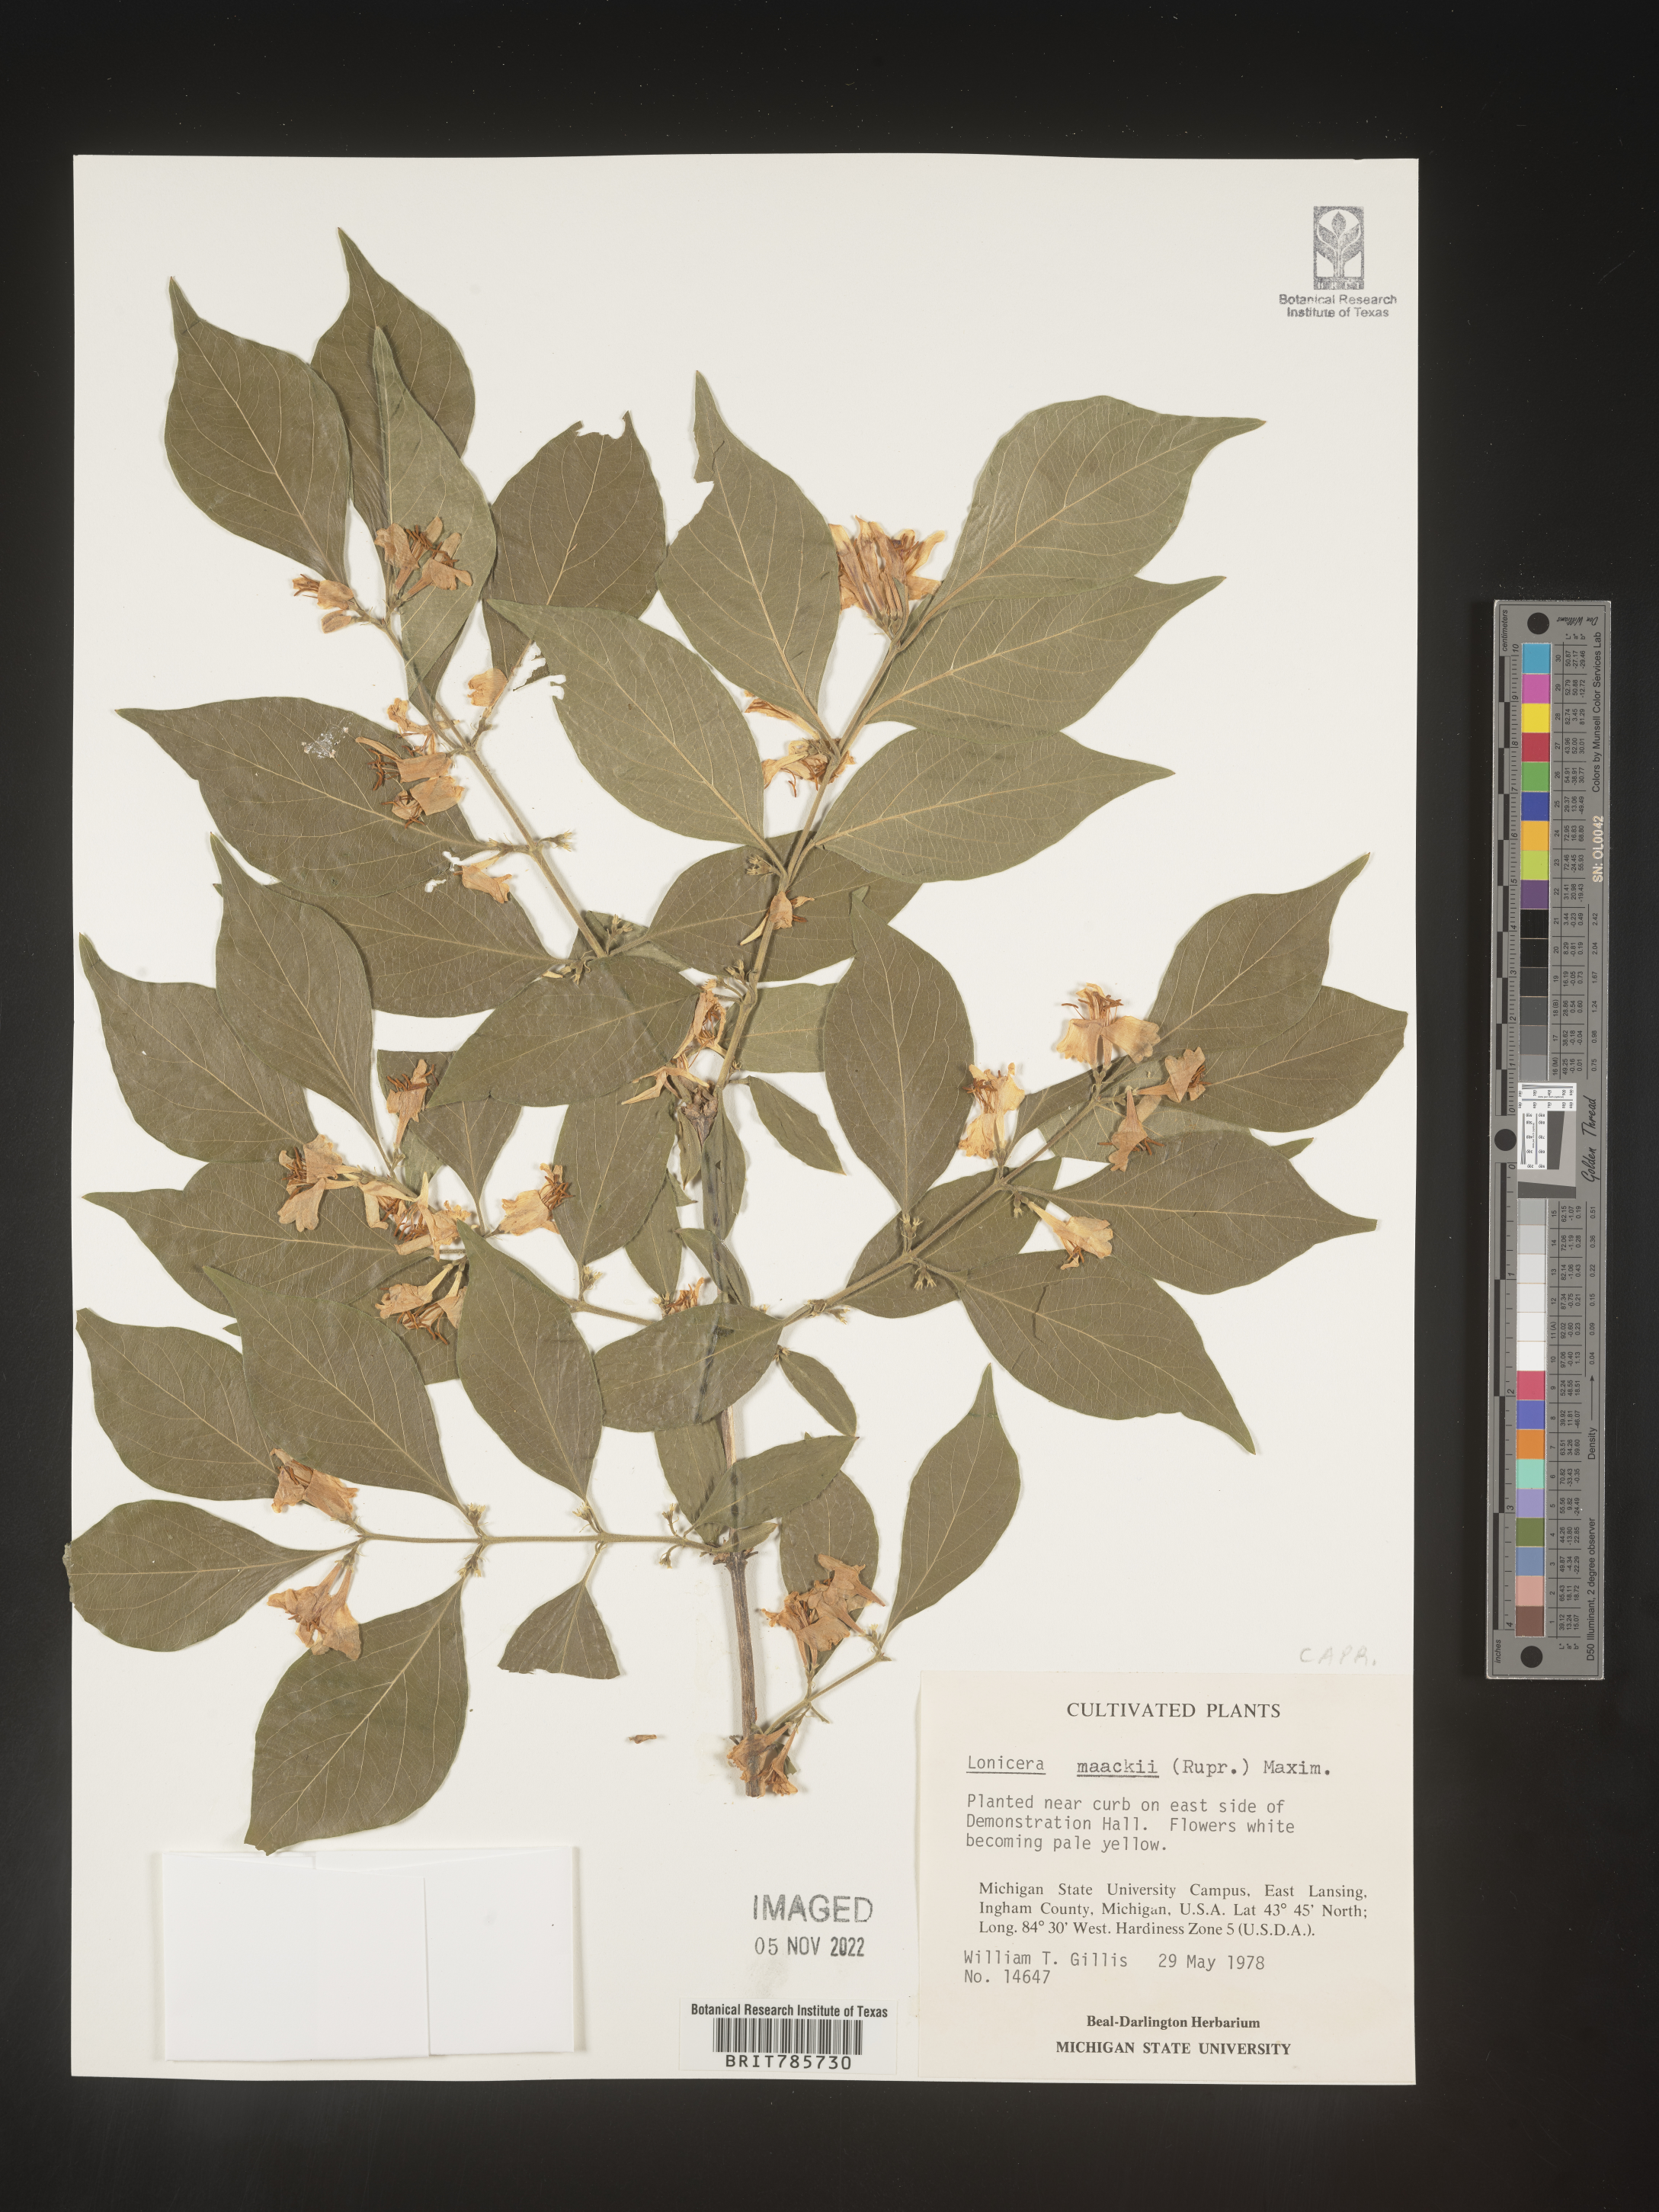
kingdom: Plantae
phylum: Tracheophyta
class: Magnoliopsida
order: Dipsacales
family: Caprifoliaceae
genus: Lonicera
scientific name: Lonicera
